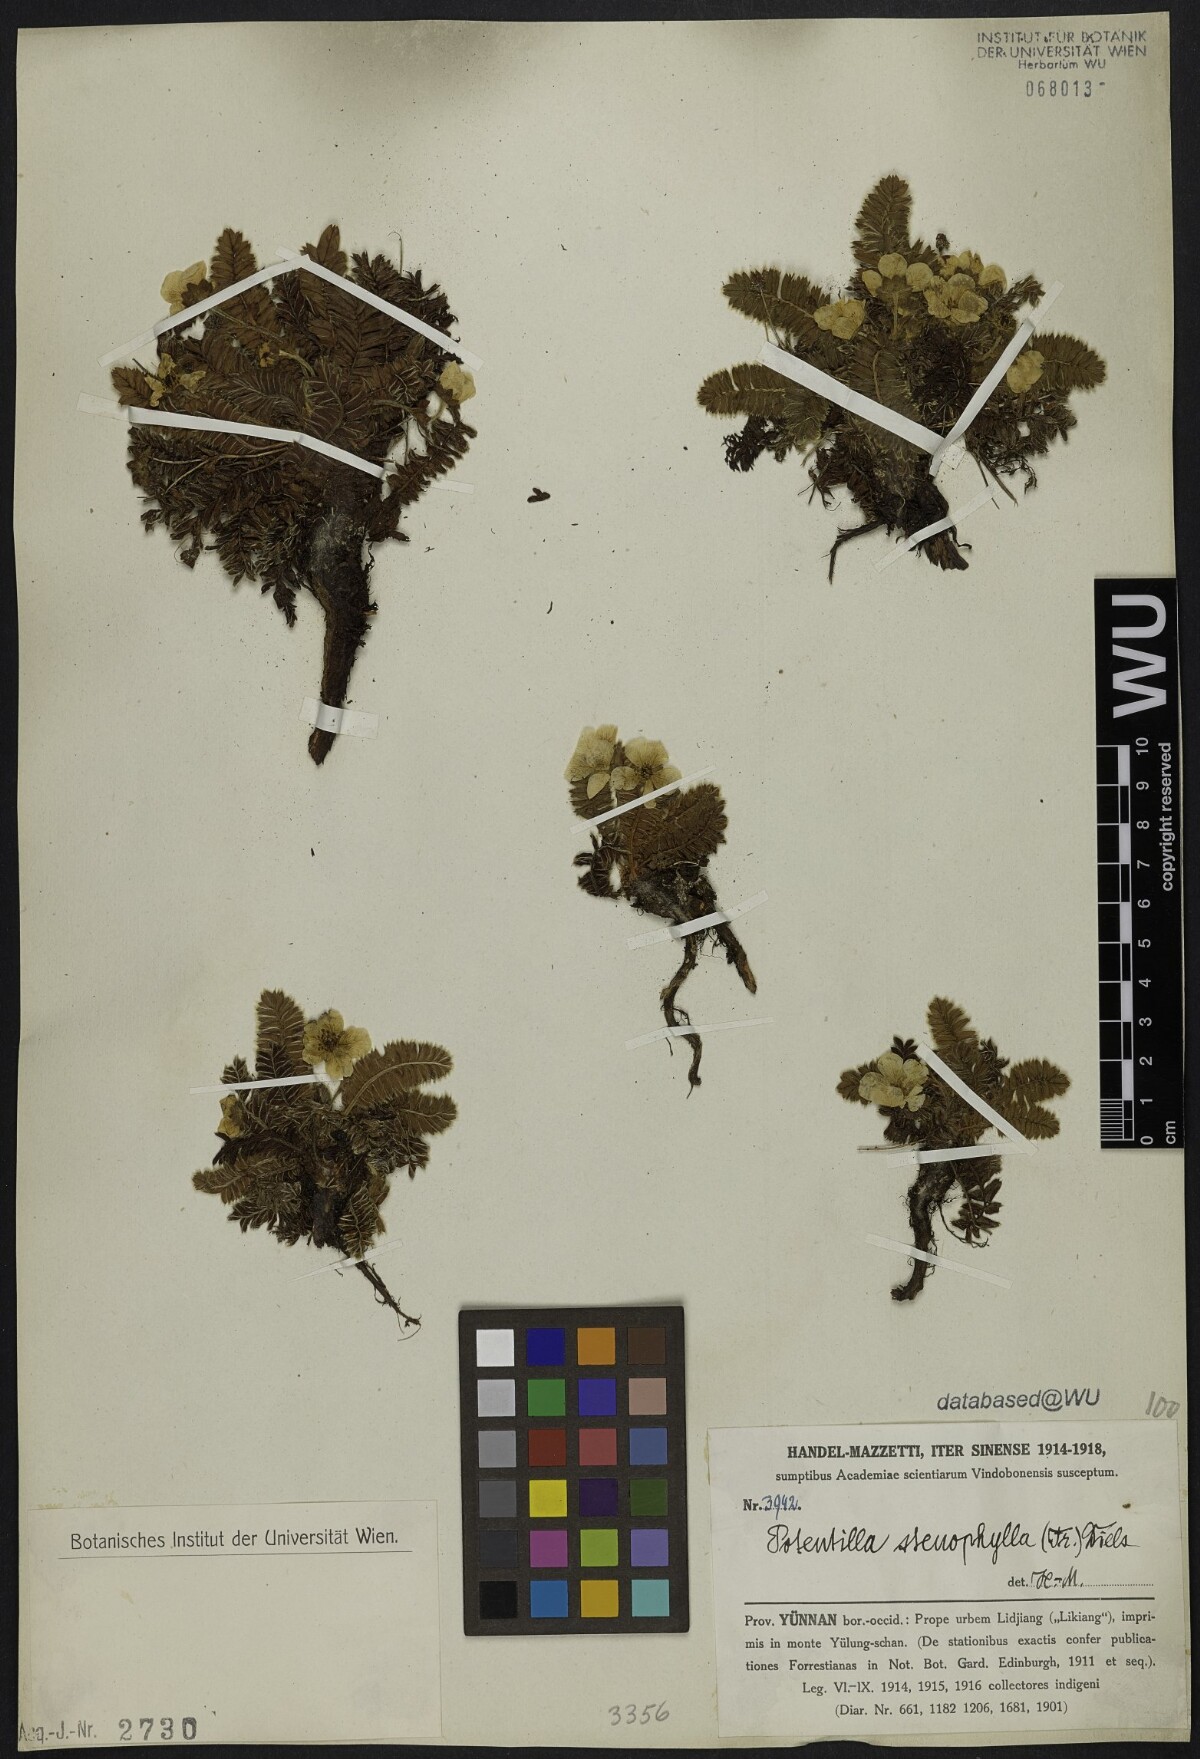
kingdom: Plantae
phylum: Tracheophyta
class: Magnoliopsida
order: Rosales
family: Rosaceae
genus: Argentina
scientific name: Argentina stenophylla
